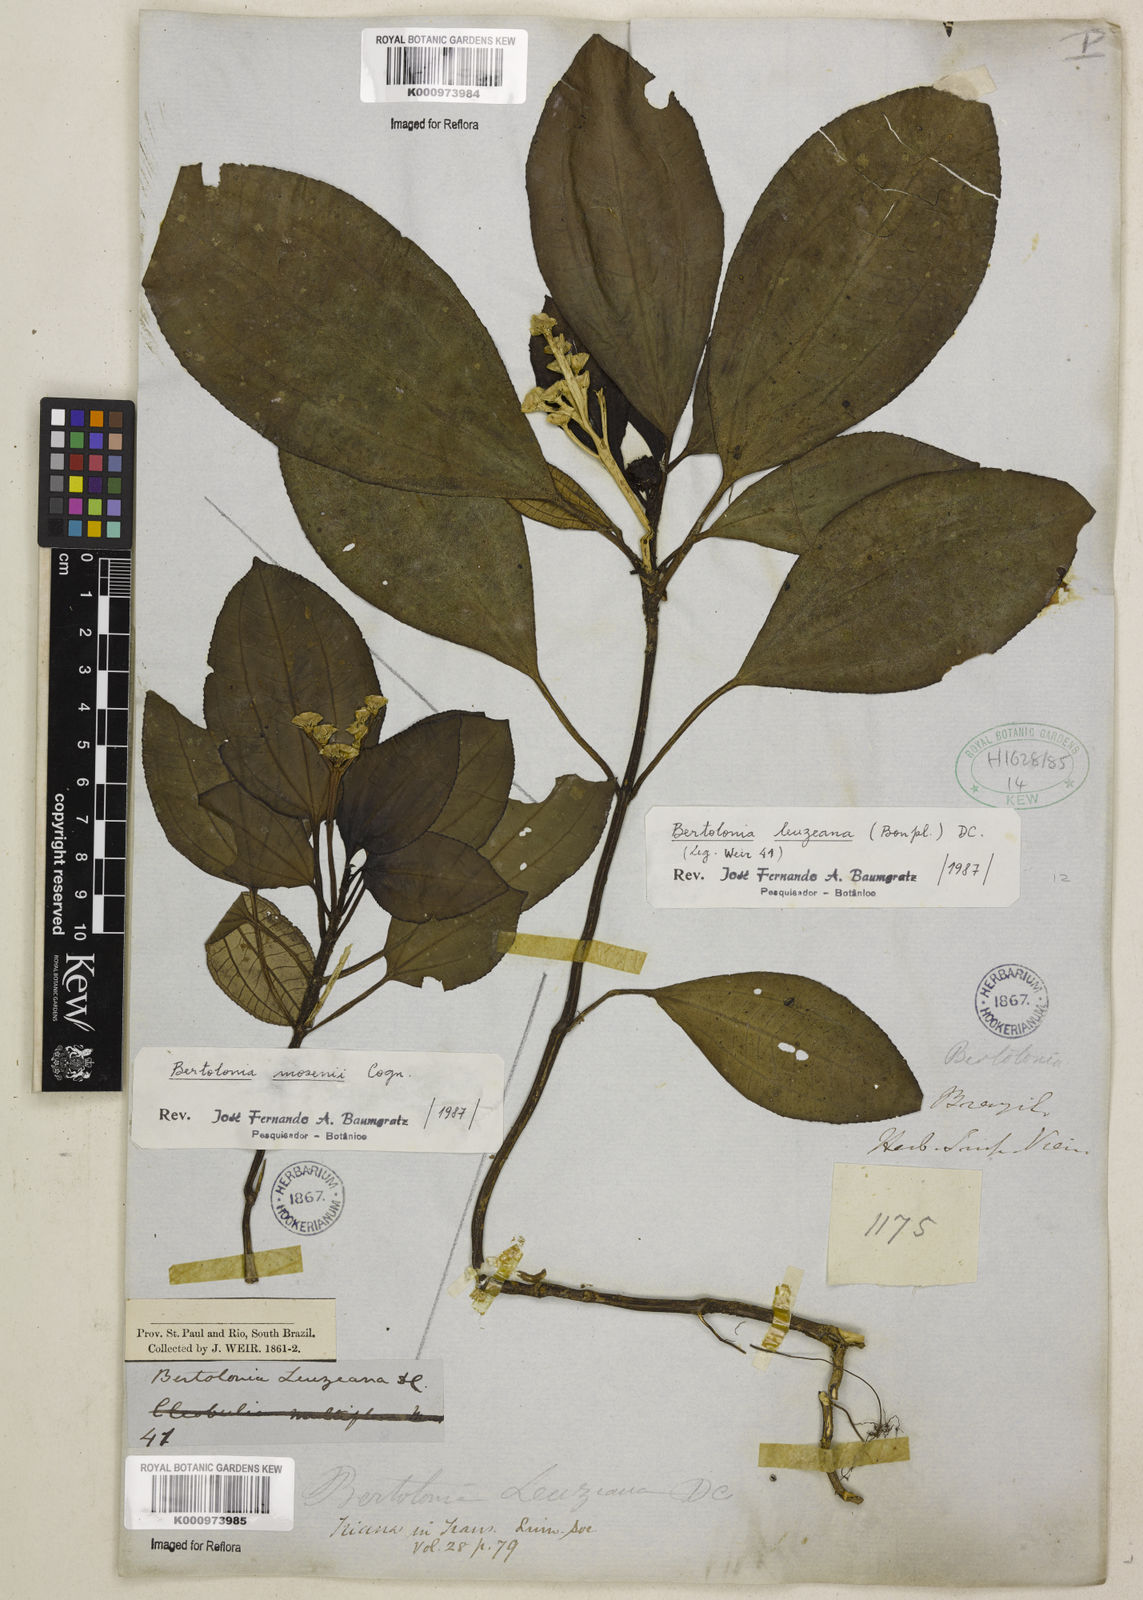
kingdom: Plantae
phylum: Tracheophyta
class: Magnoliopsida
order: Myrtales
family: Melastomataceae
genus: Bertolonia
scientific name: Bertolonia leuzeana
